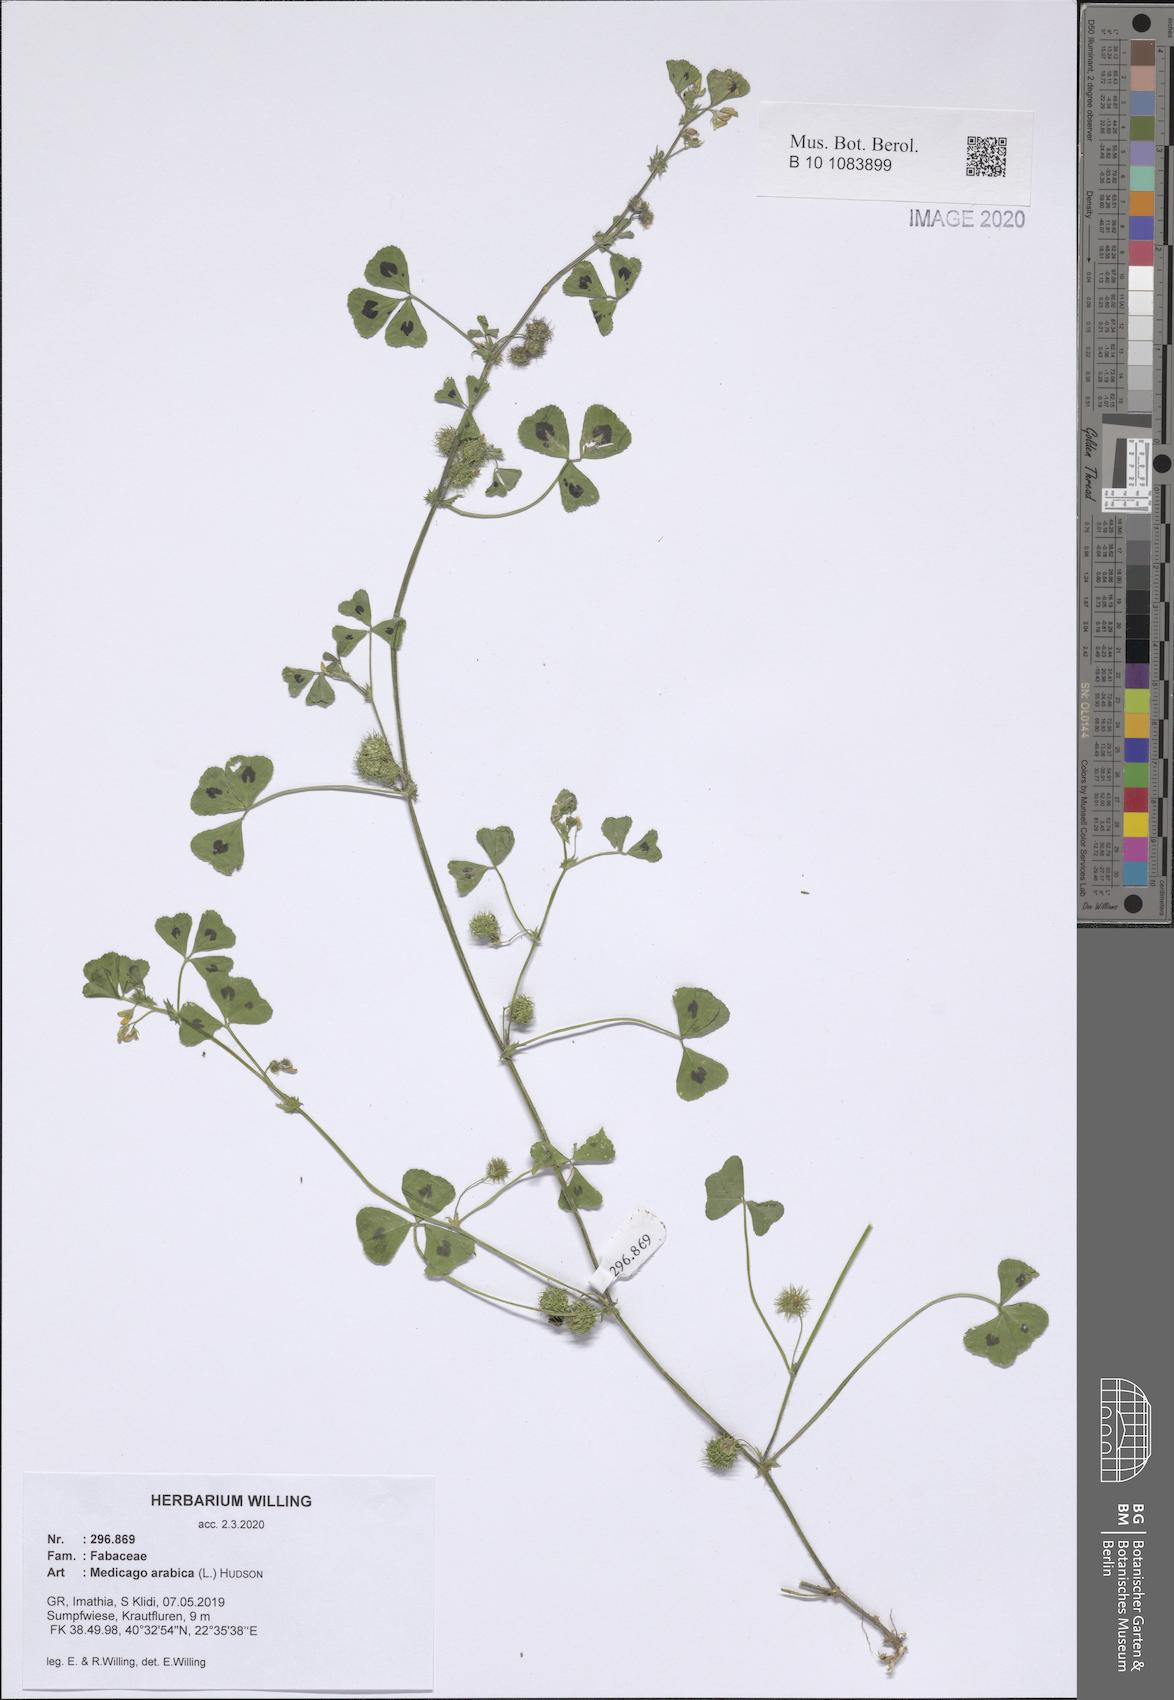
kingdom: Plantae
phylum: Tracheophyta
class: Magnoliopsida
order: Fabales
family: Fabaceae
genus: Medicago
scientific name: Medicago arabica
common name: Spotted medick
